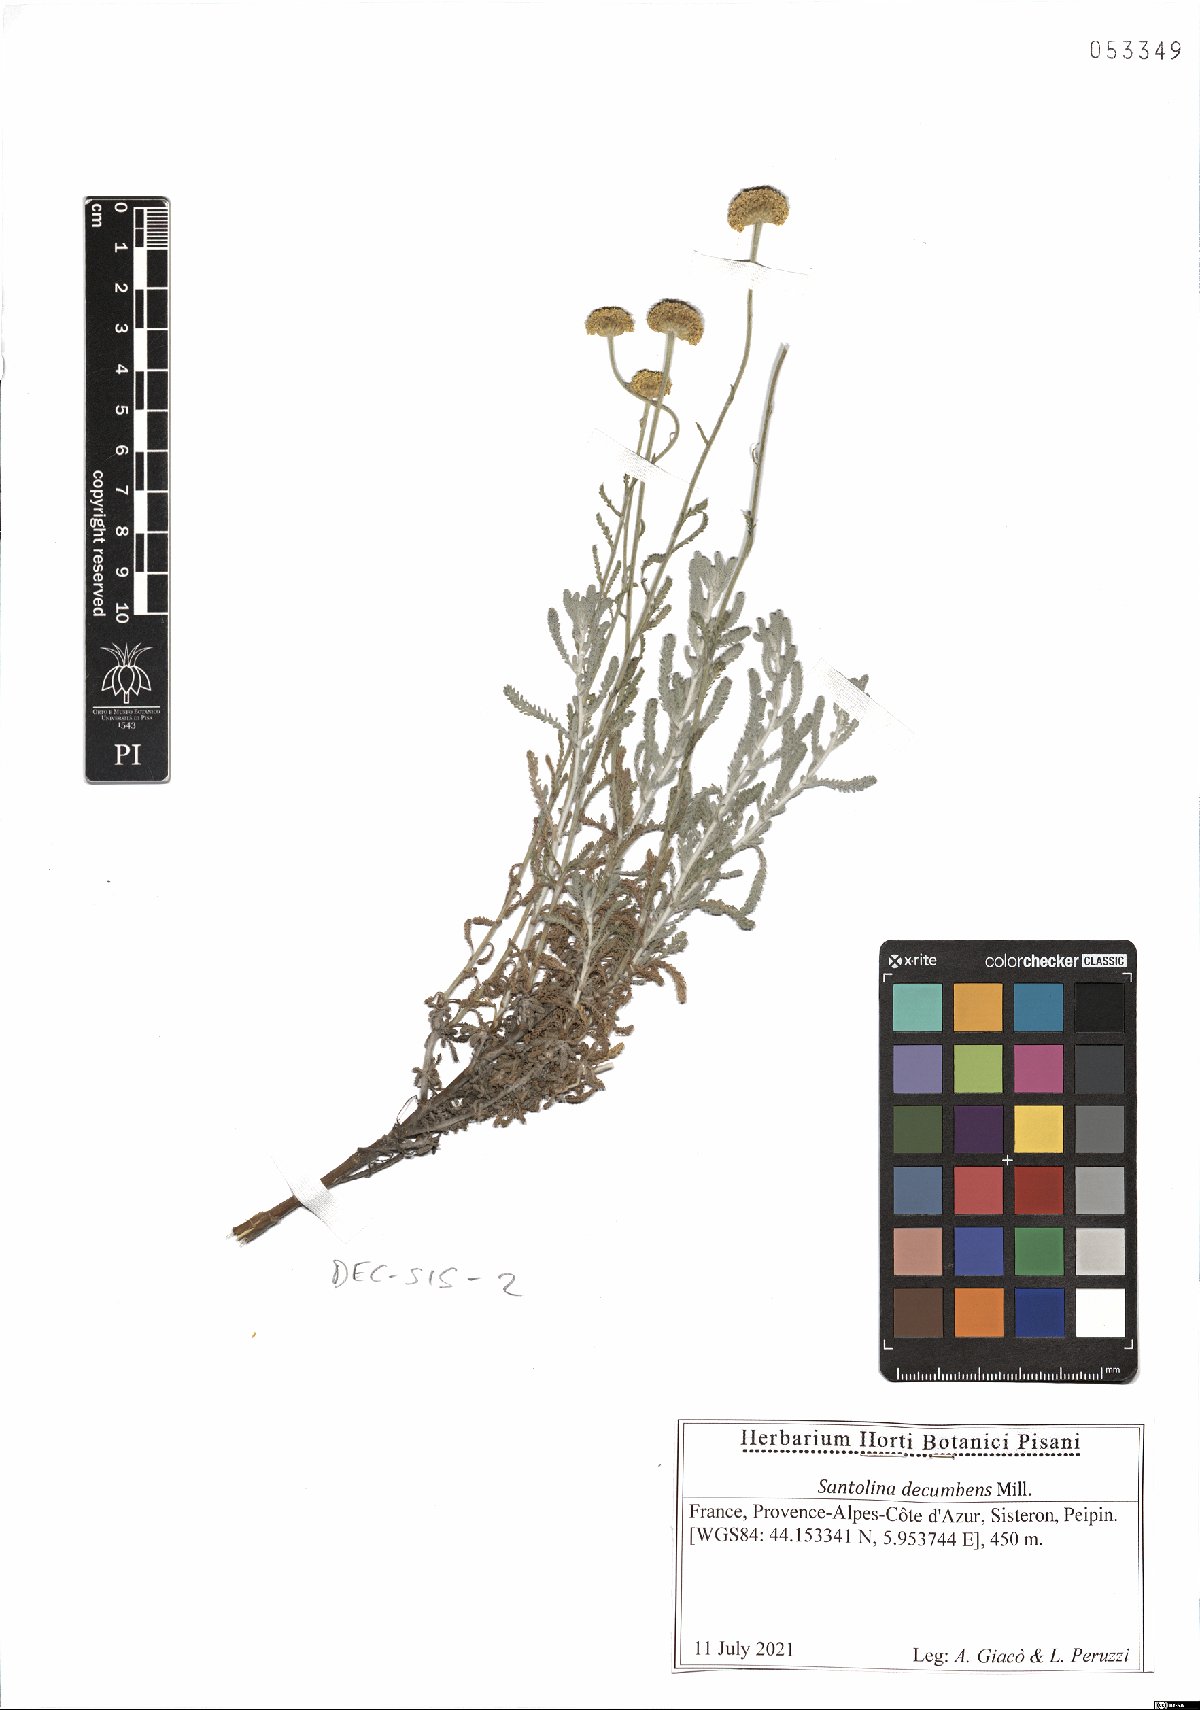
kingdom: Plantae
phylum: Tracheophyta
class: Magnoliopsida
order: Asterales
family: Asteraceae
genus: Santolina
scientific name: Santolina decumbens
